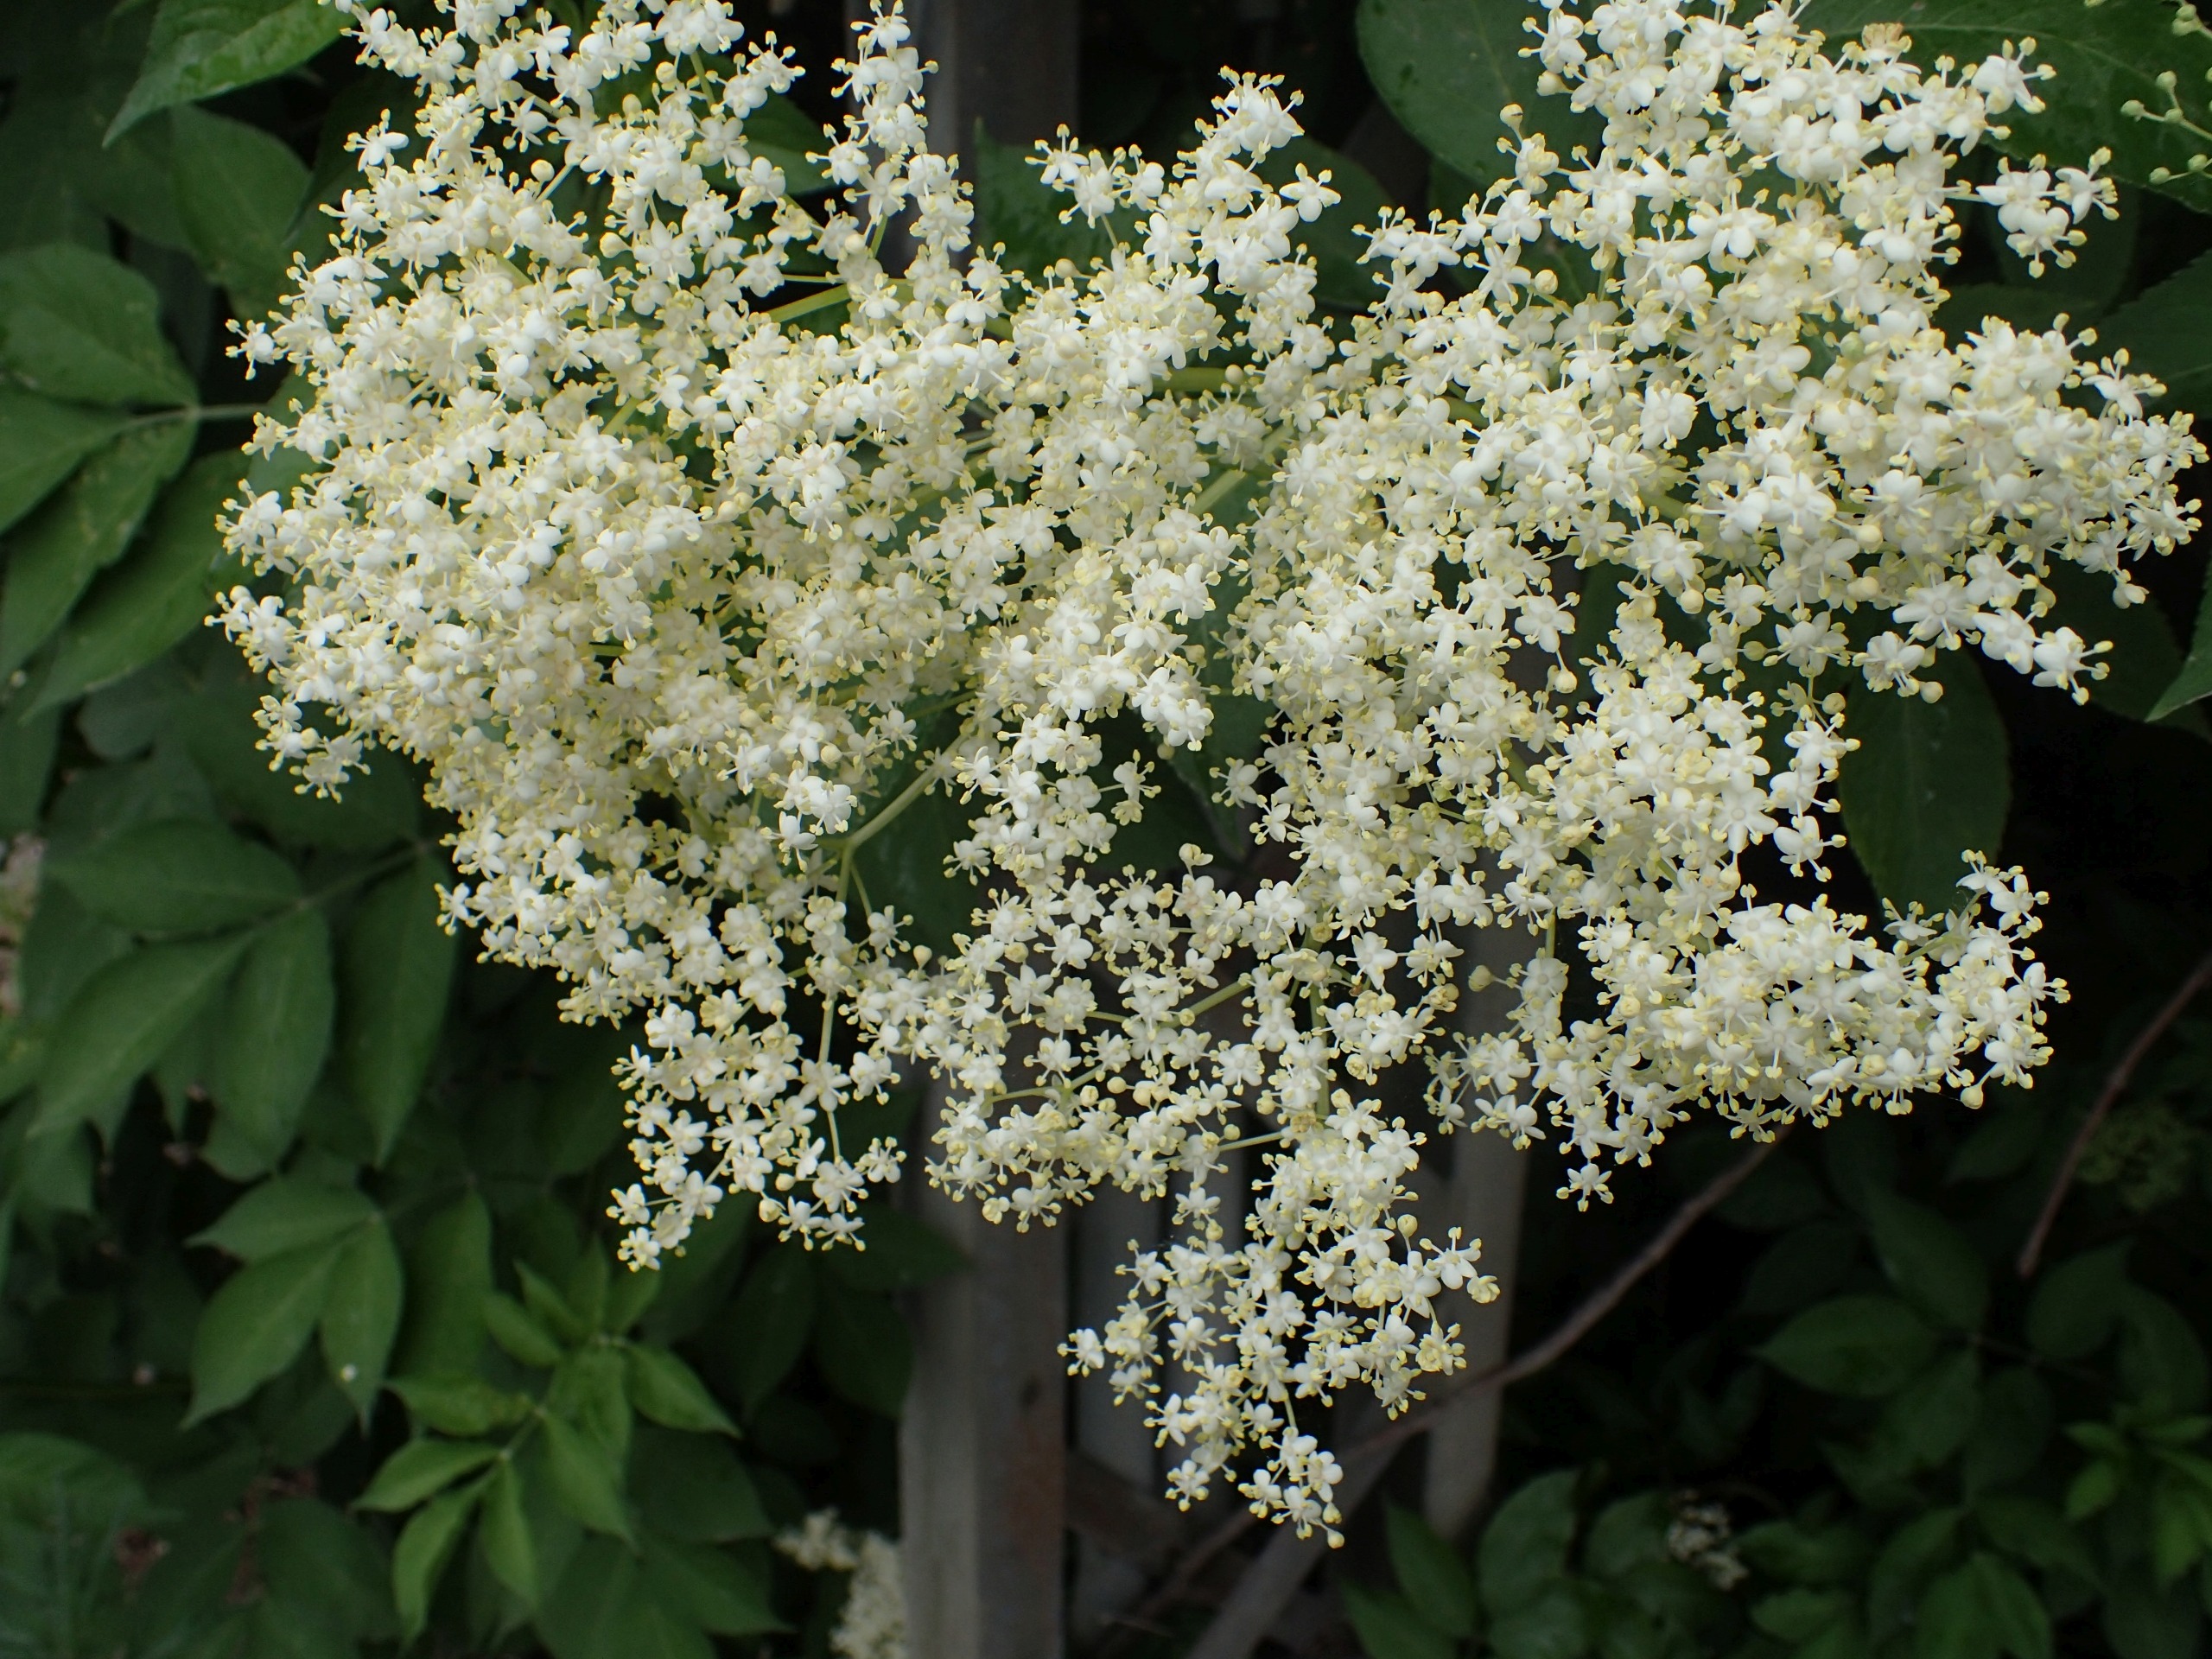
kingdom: Plantae
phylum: Tracheophyta
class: Magnoliopsida
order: Dipsacales
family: Viburnaceae
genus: Sambucus
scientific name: Sambucus nigra
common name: Almindelig hyld
